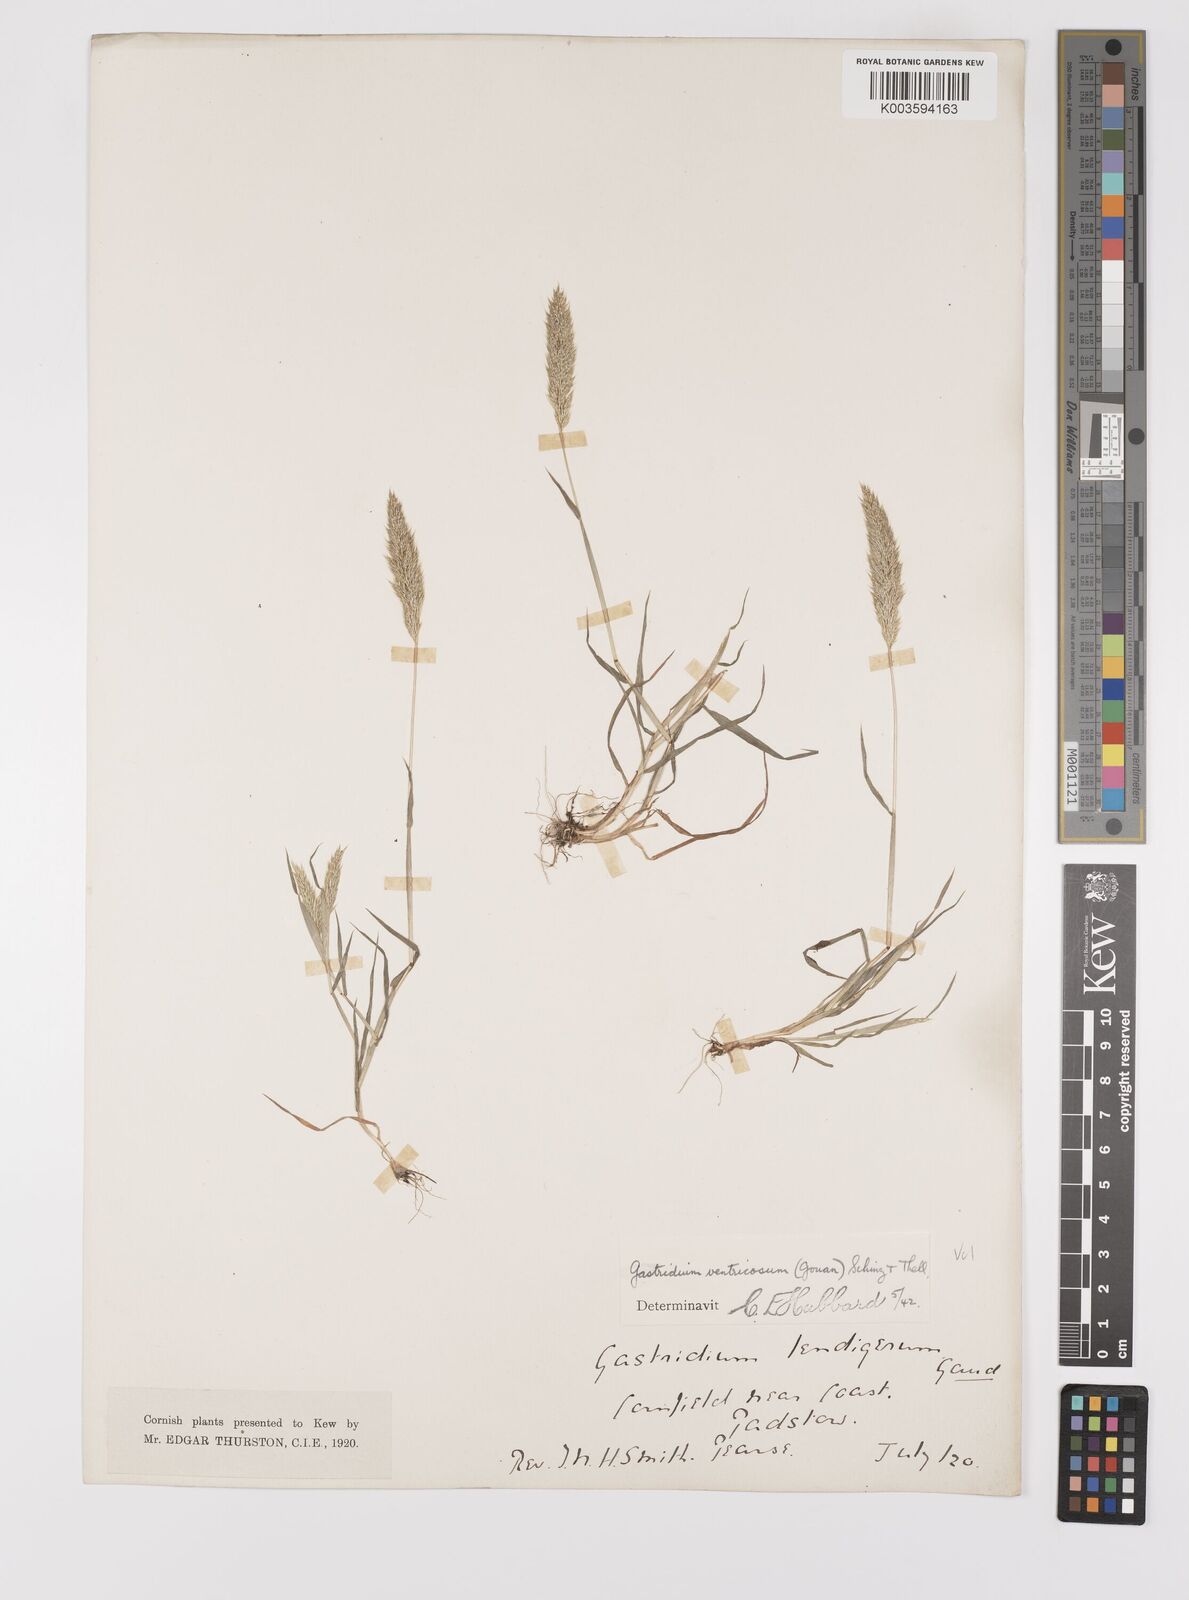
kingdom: Plantae
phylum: Tracheophyta
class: Liliopsida
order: Poales
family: Poaceae
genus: Gastridium
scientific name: Gastridium ventricosum
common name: Nit-grass
